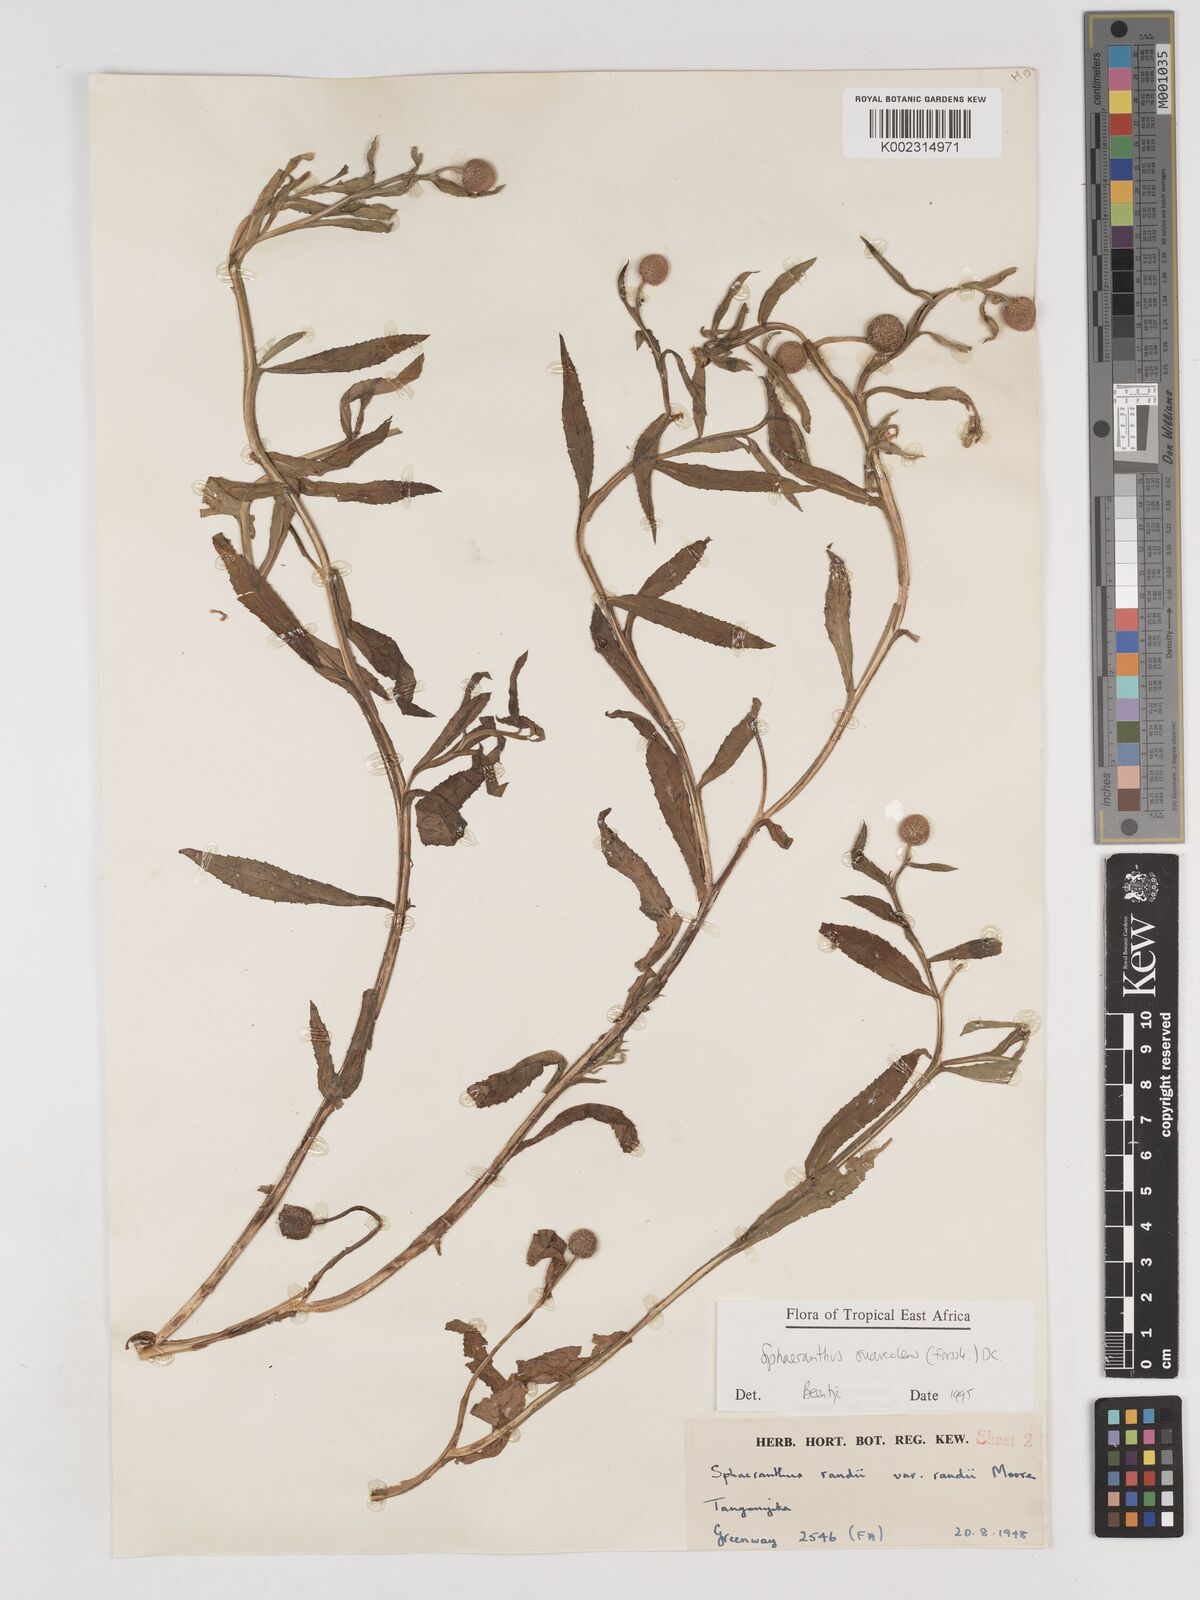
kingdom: Plantae
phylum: Tracheophyta
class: Magnoliopsida
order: Asterales
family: Asteraceae
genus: Sphaeranthus
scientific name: Sphaeranthus suaveolens
